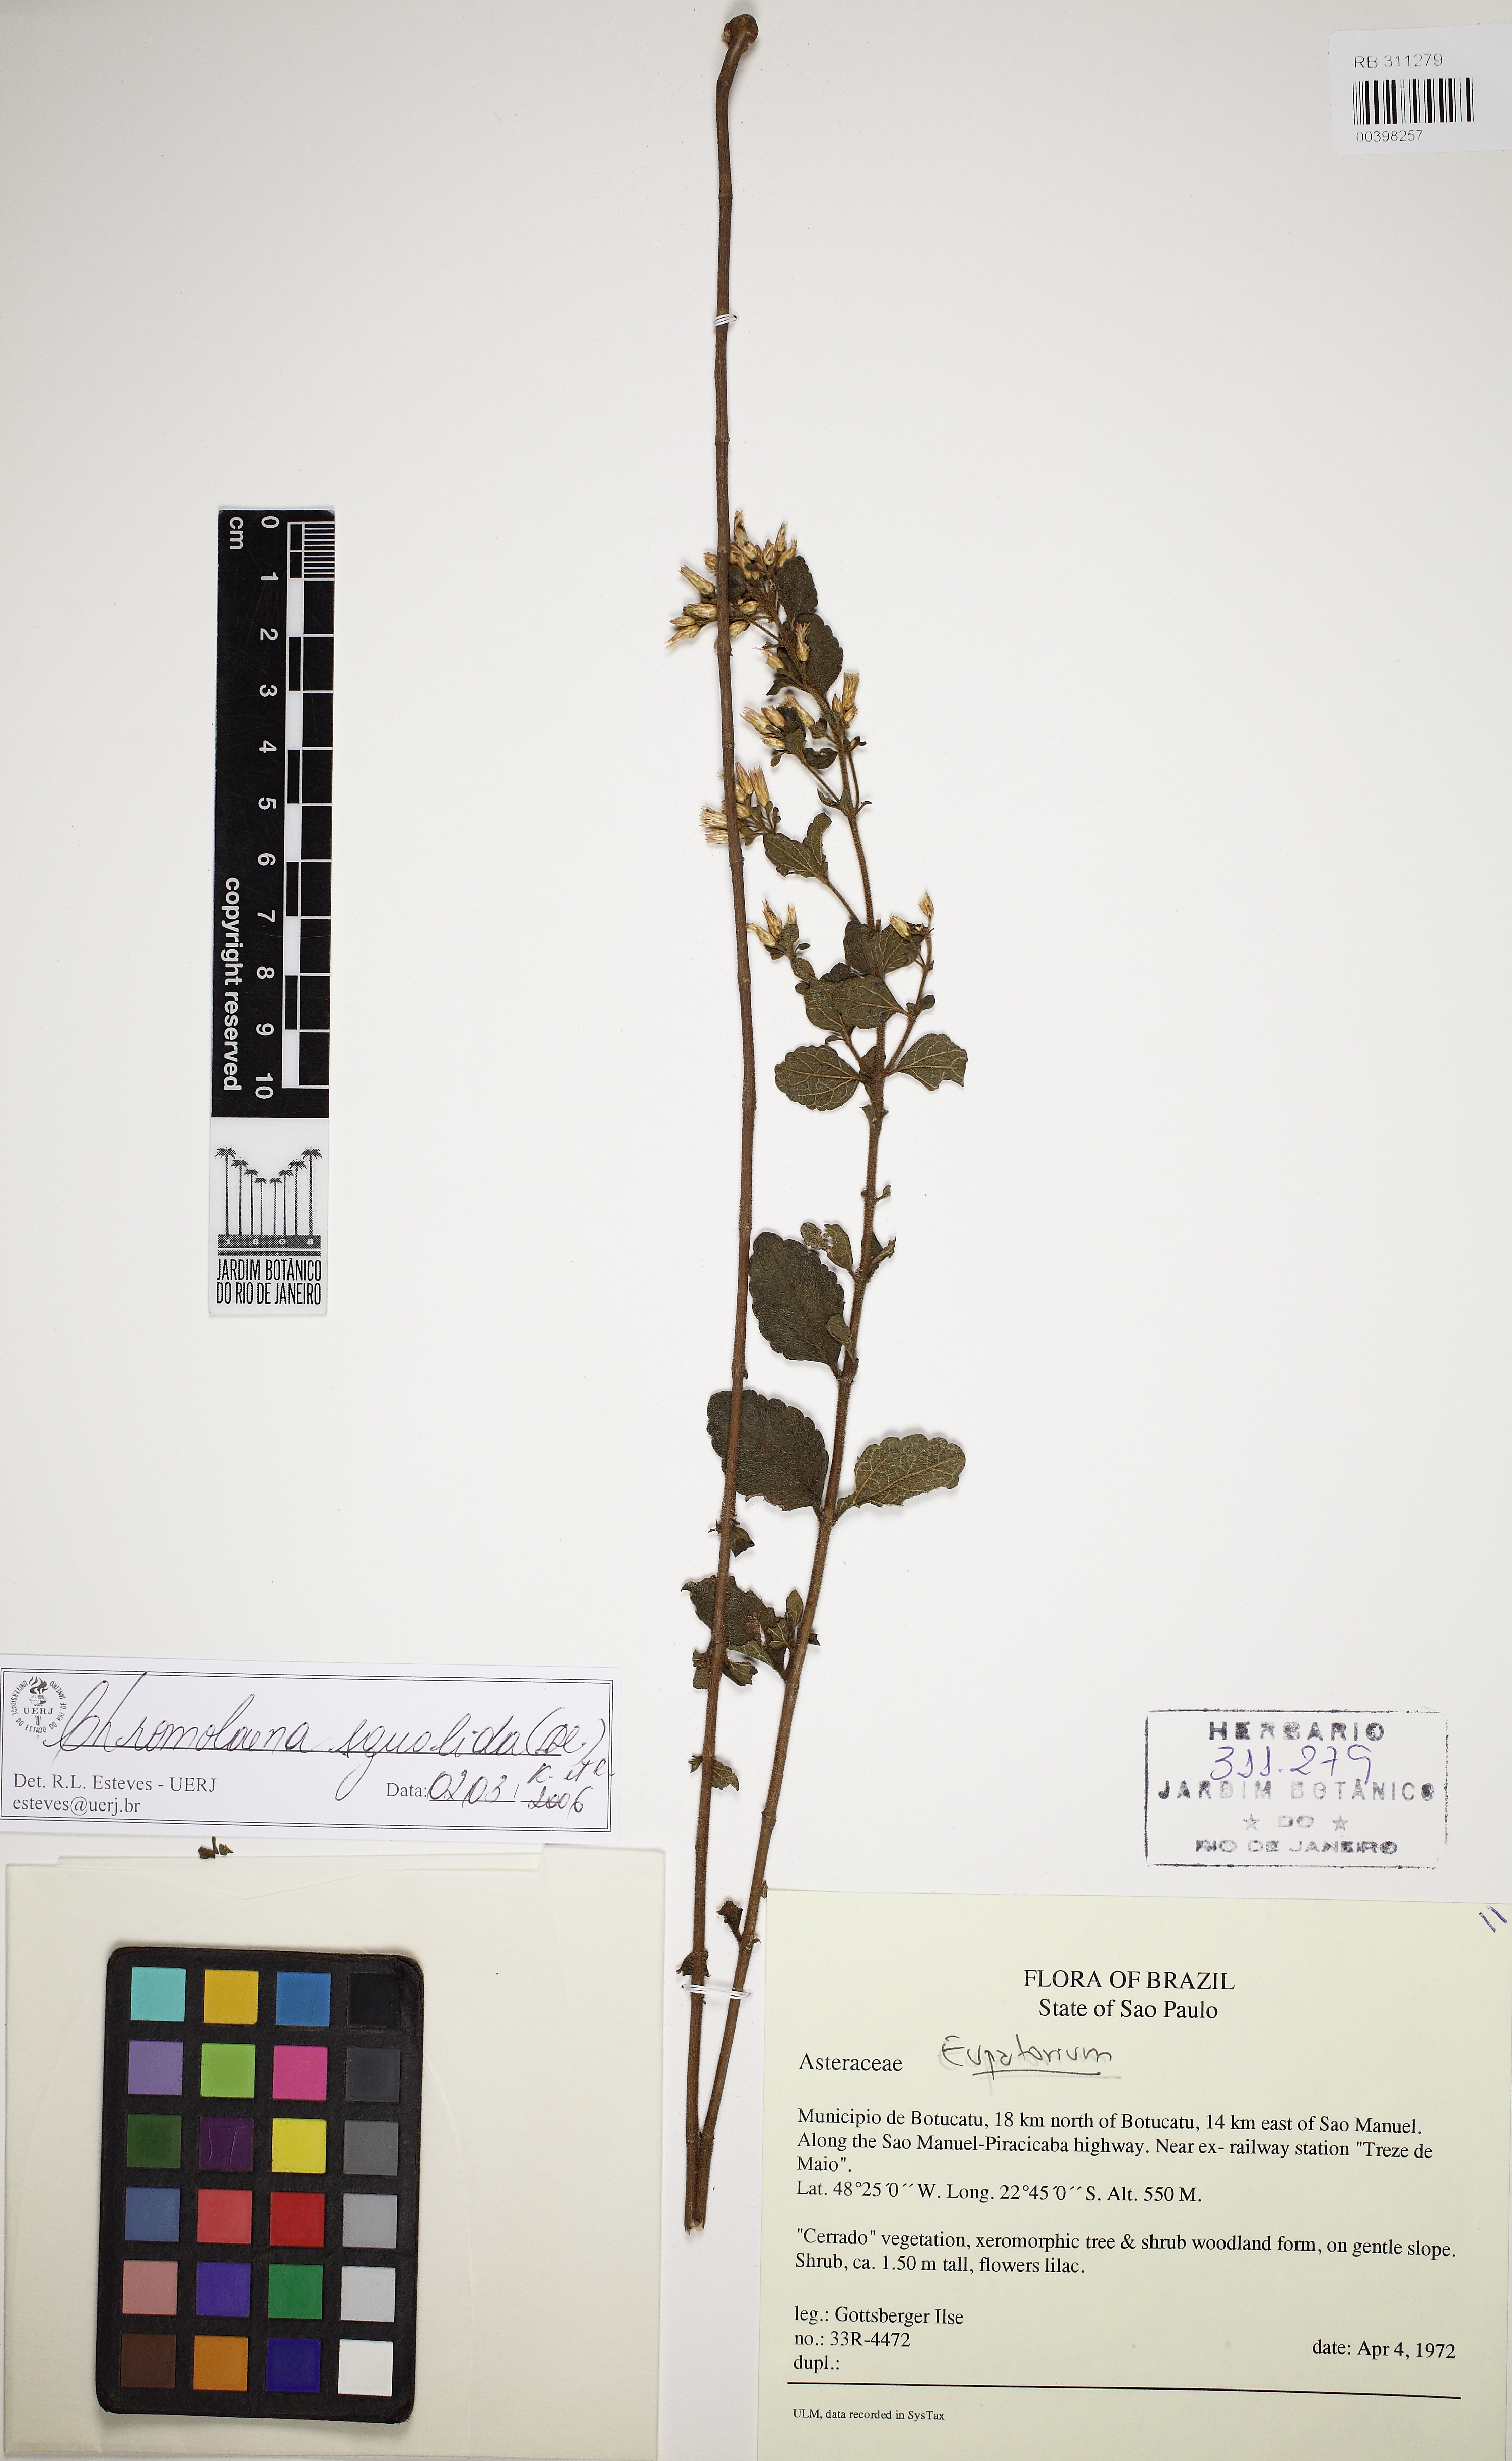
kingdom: Plantae
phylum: Tracheophyta
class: Magnoliopsida
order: Asterales
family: Asteraceae
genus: Chromolaena
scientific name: Chromolaena squalida
